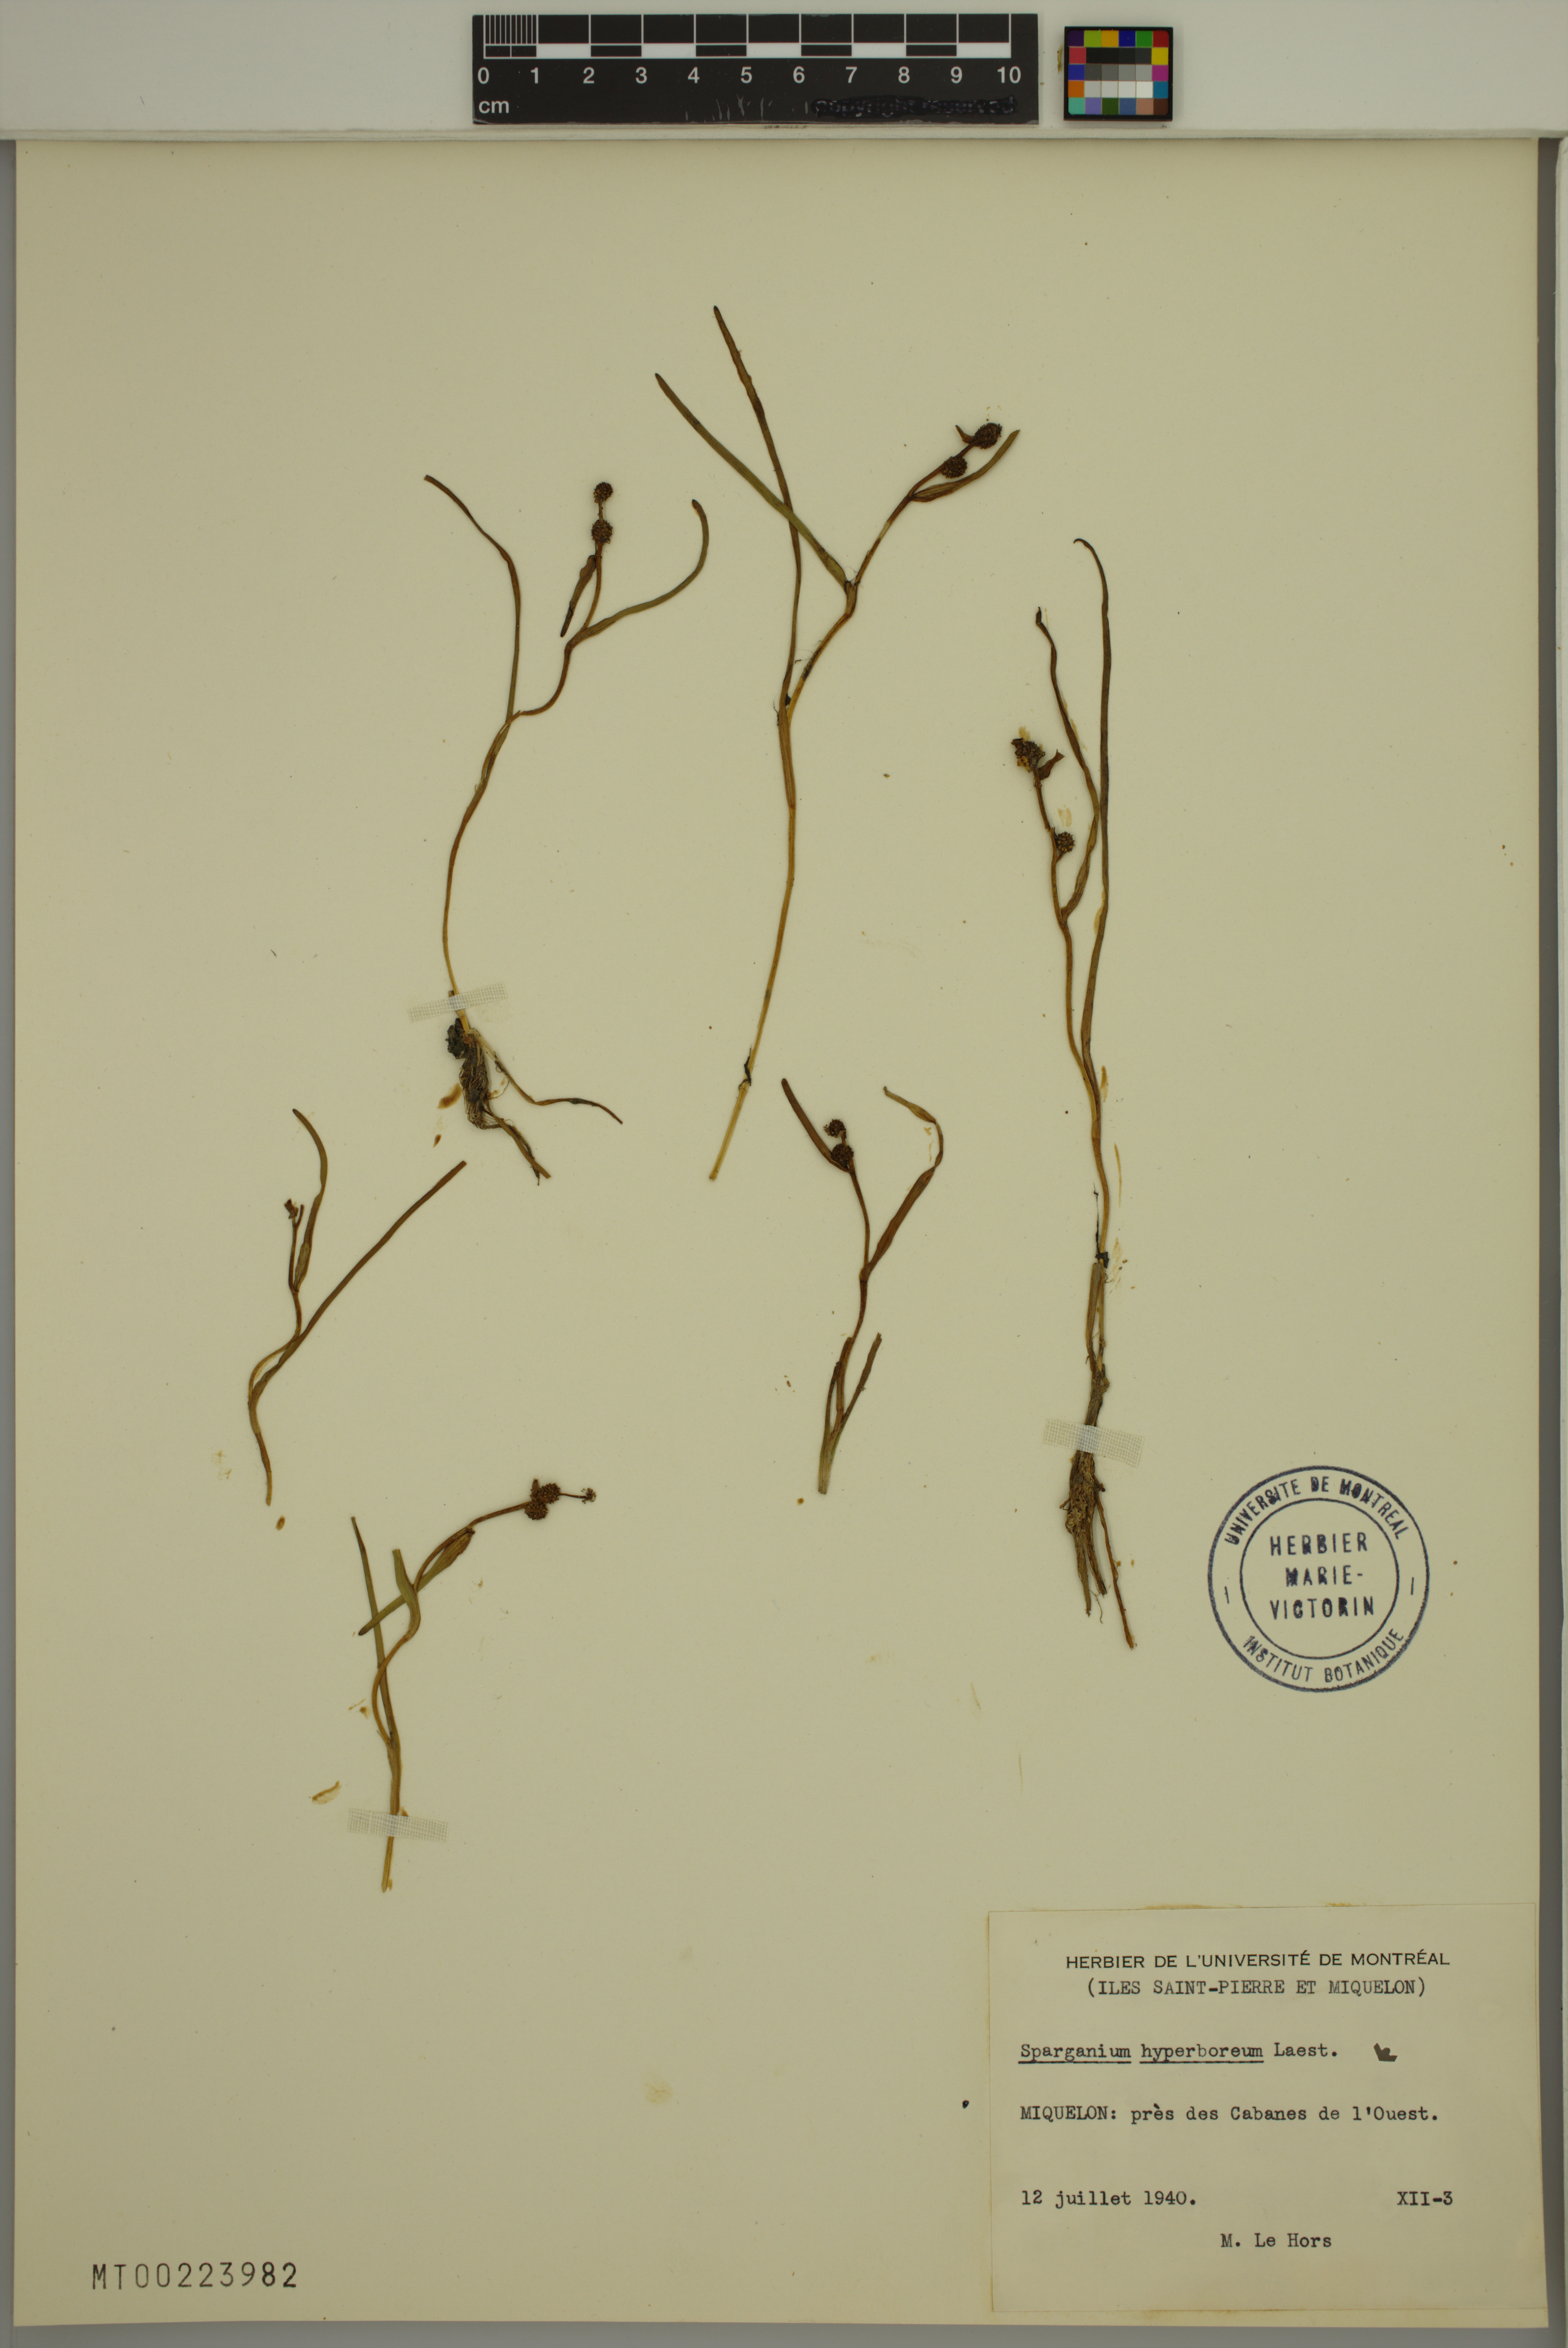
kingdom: Plantae
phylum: Tracheophyta
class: Liliopsida
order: Poales
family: Typhaceae
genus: Sparganium
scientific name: Sparganium hyperboreum
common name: Arctic burreed
